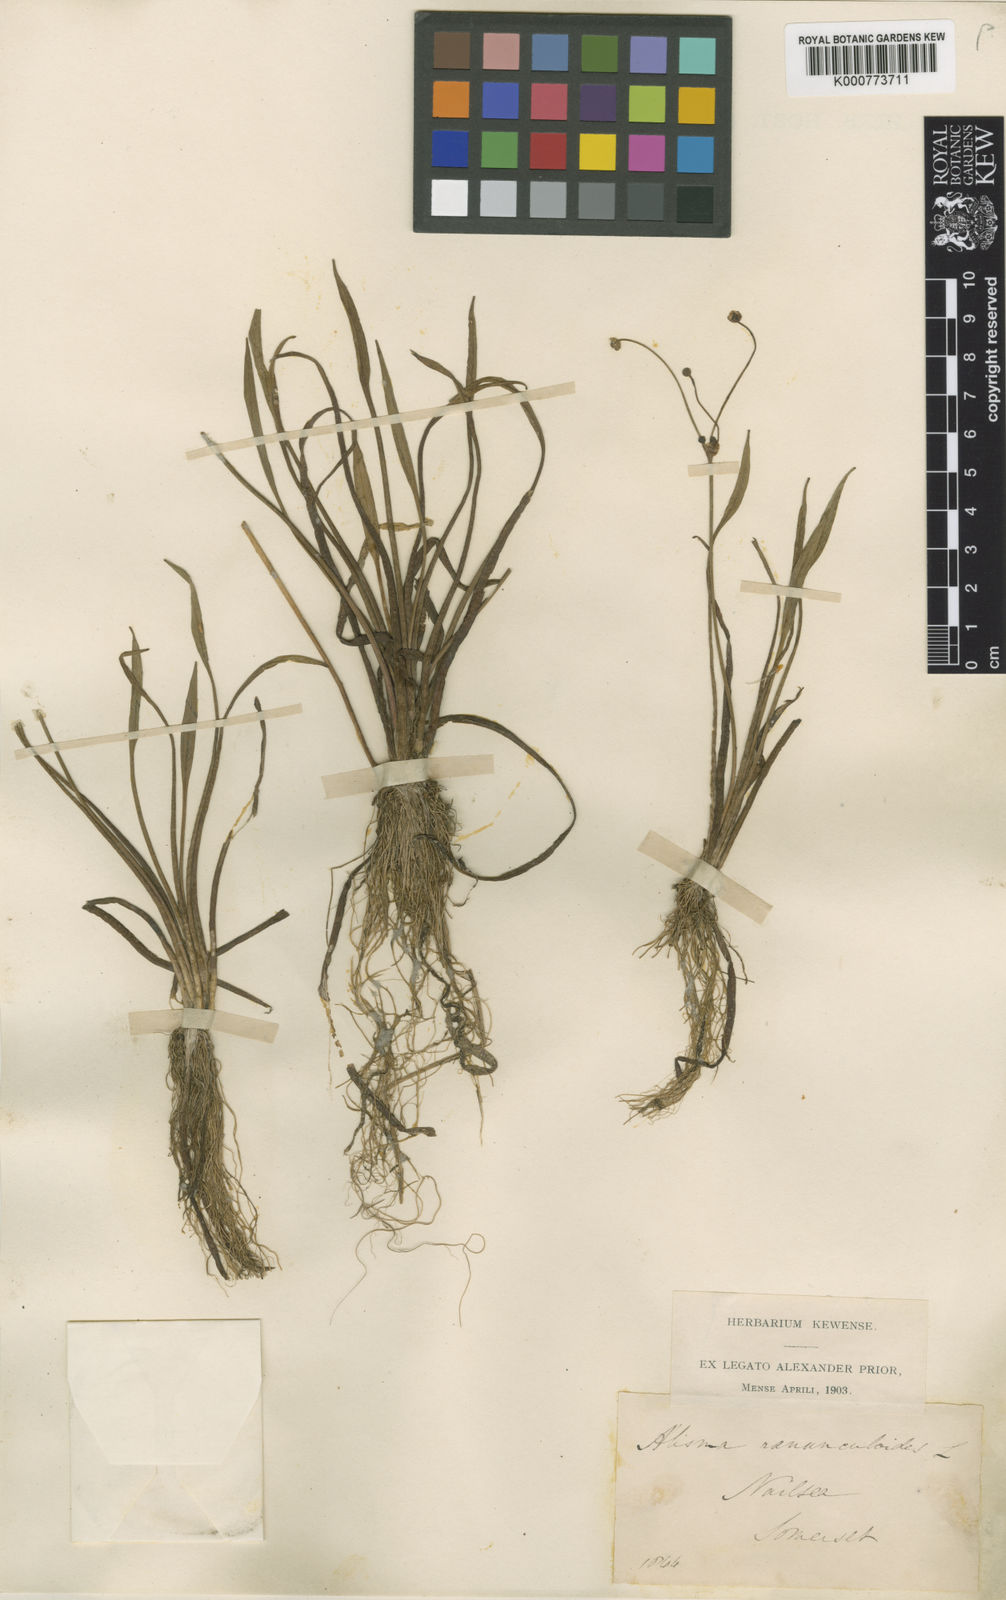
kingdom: Plantae
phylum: Tracheophyta
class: Liliopsida
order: Alismatales
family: Alismataceae
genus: Baldellia
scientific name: Baldellia ranunculoides
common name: Lesser water-plantain
